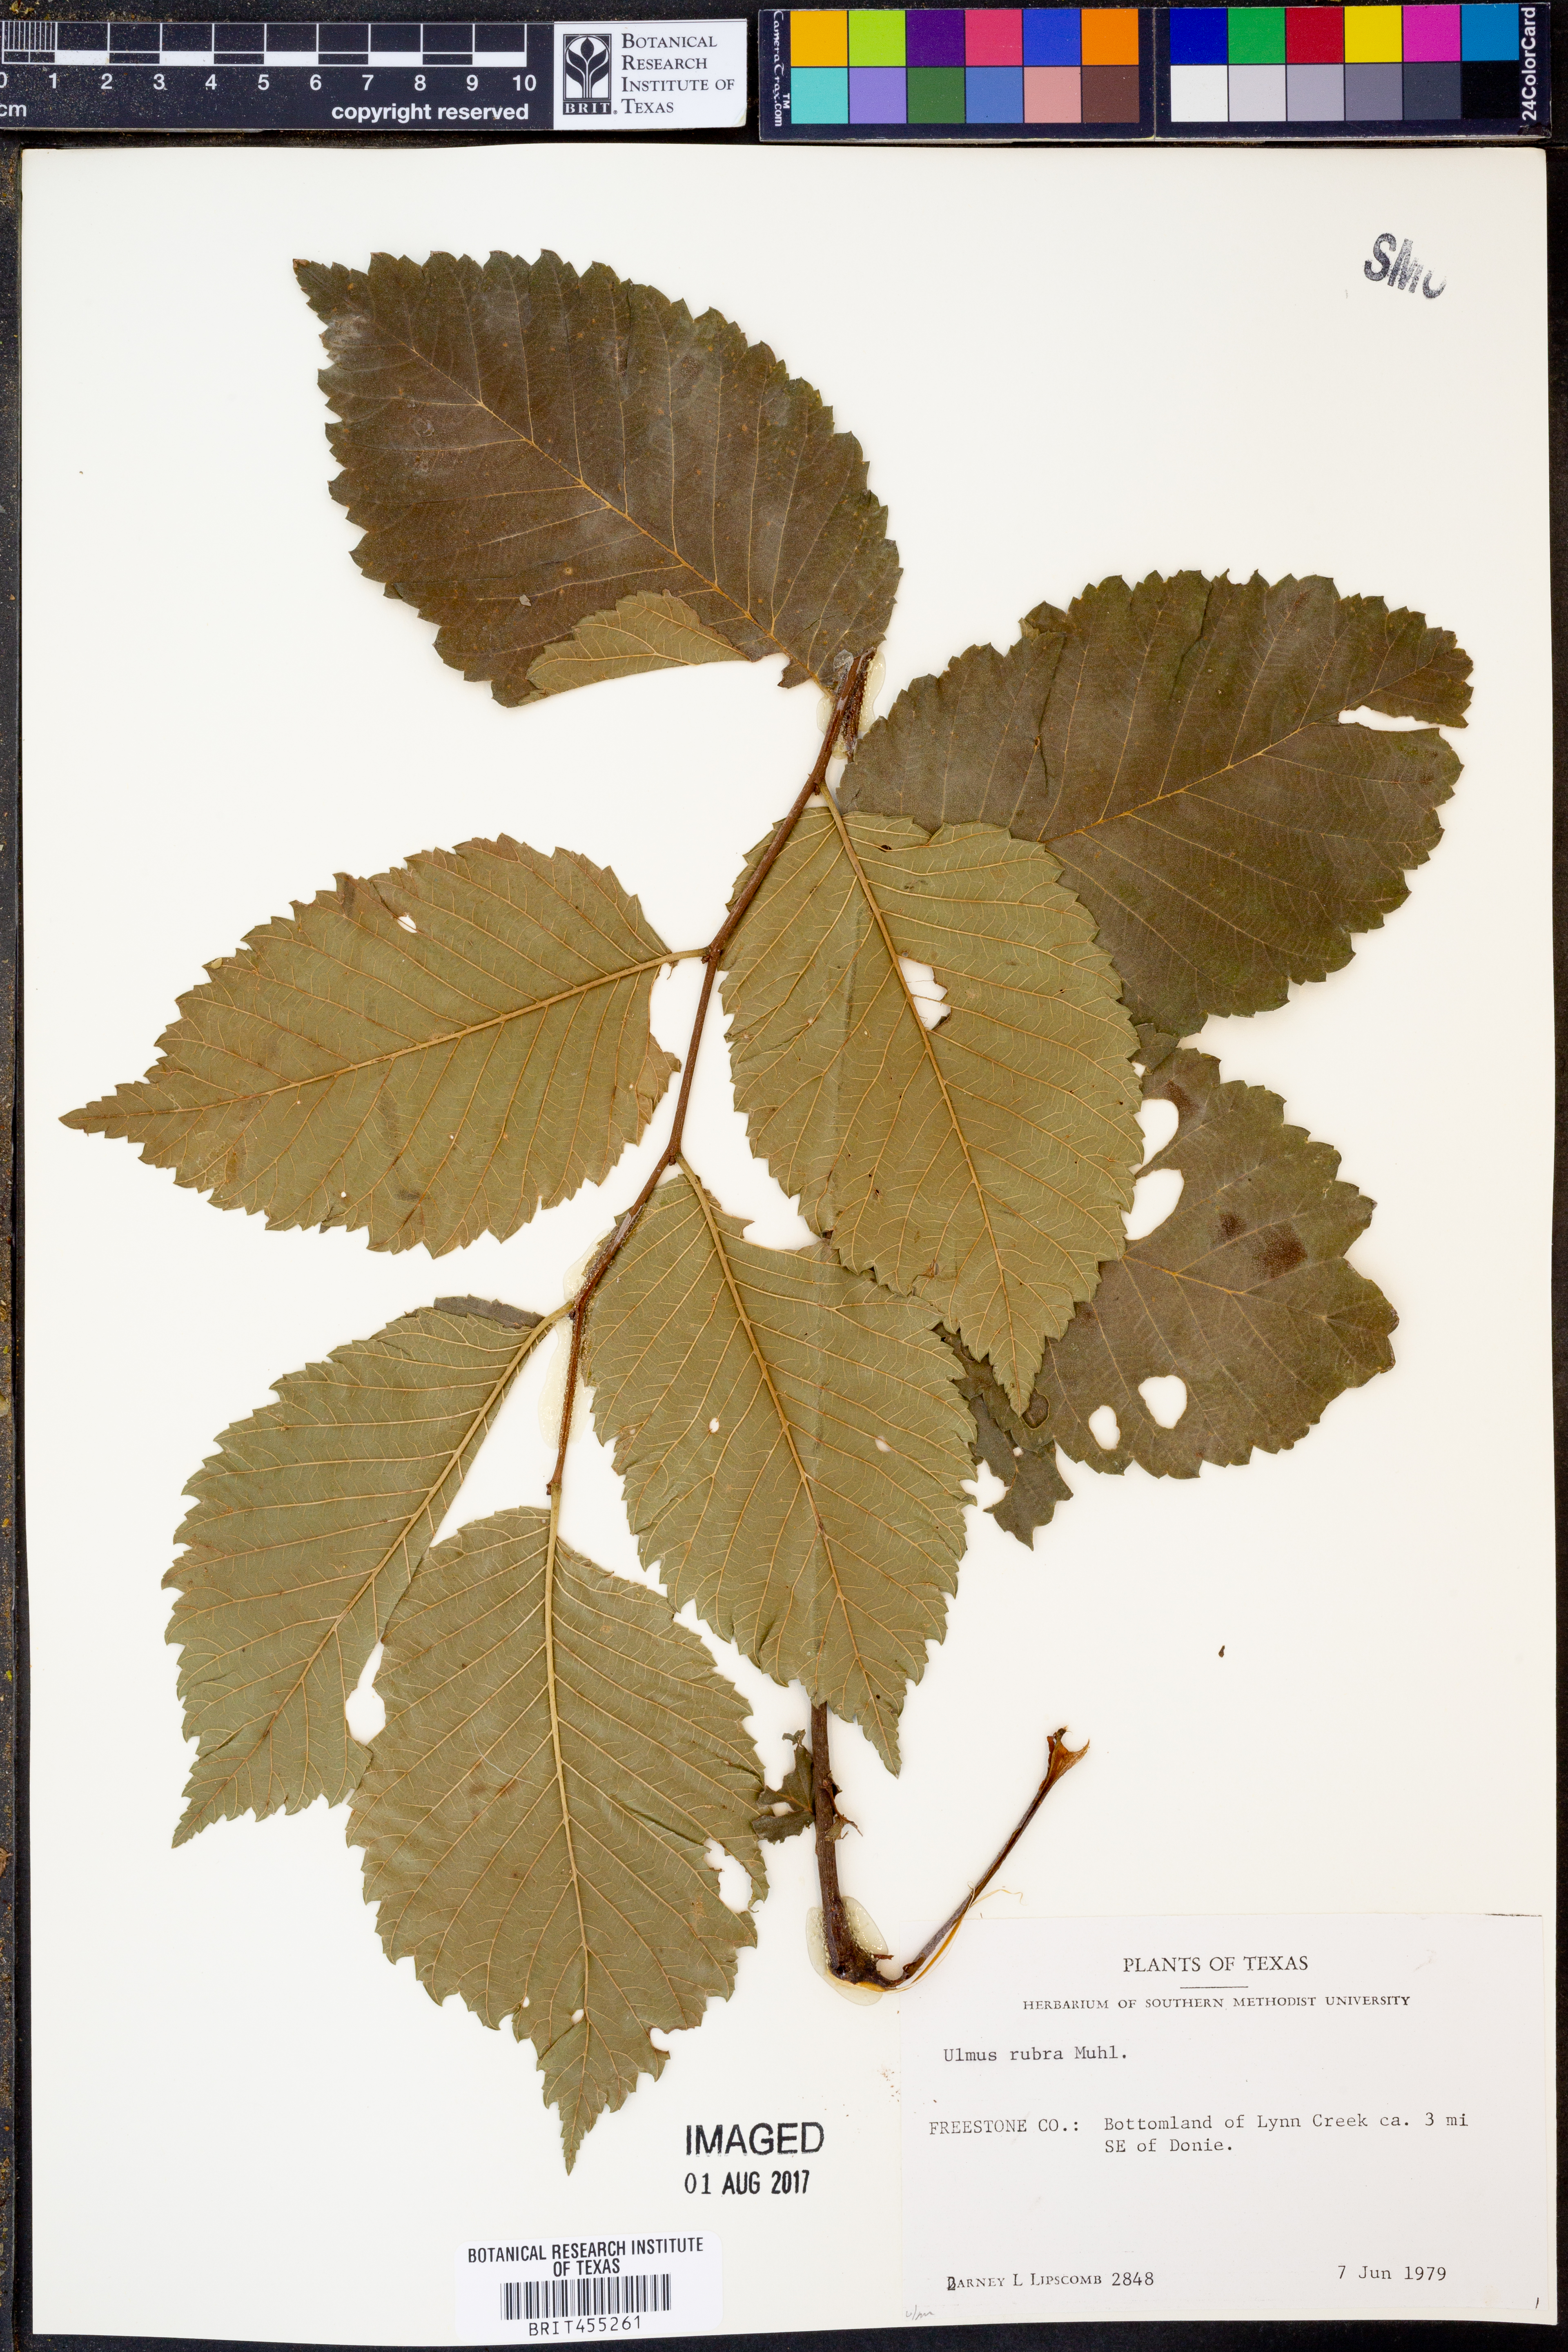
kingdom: Plantae
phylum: Tracheophyta
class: Magnoliopsida
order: Rosales
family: Ulmaceae
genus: Ulmus
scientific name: Ulmus rubra
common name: Slippery elm
